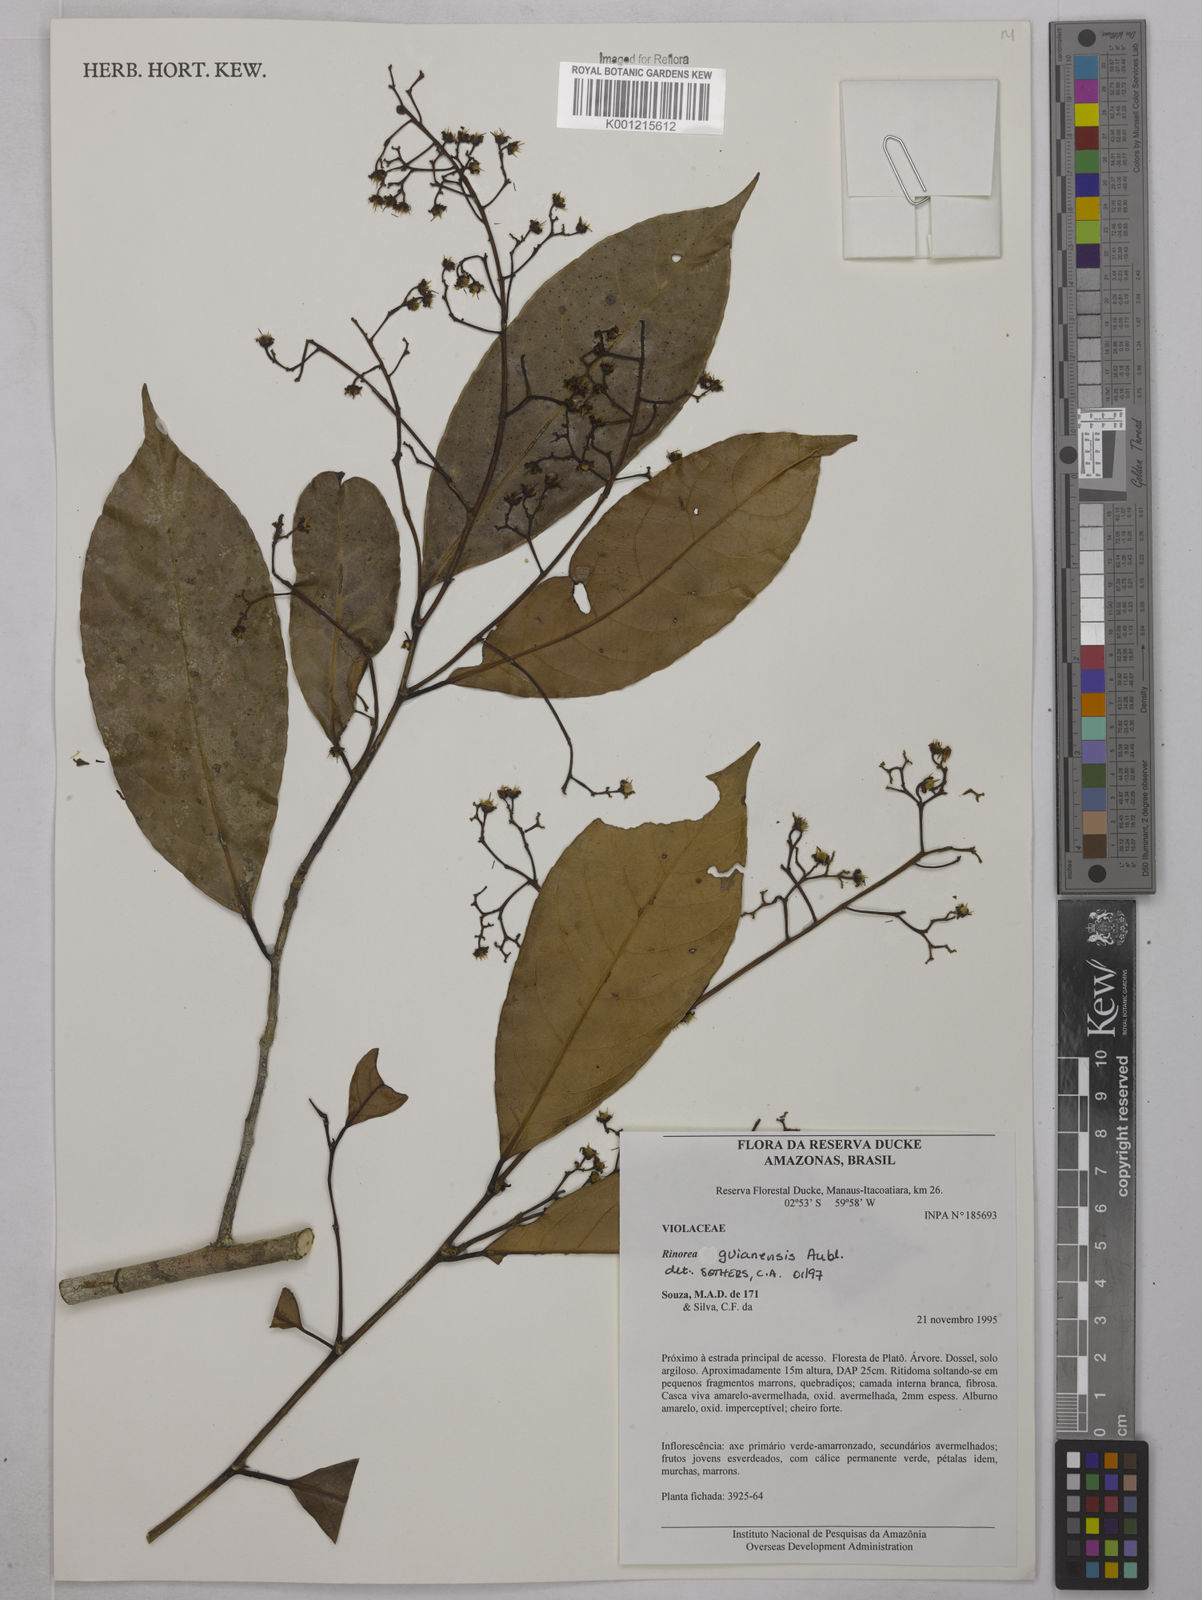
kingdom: Plantae
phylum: Tracheophyta
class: Magnoliopsida
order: Malpighiales
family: Violaceae
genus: Rinorea
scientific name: Rinorea guianensis
